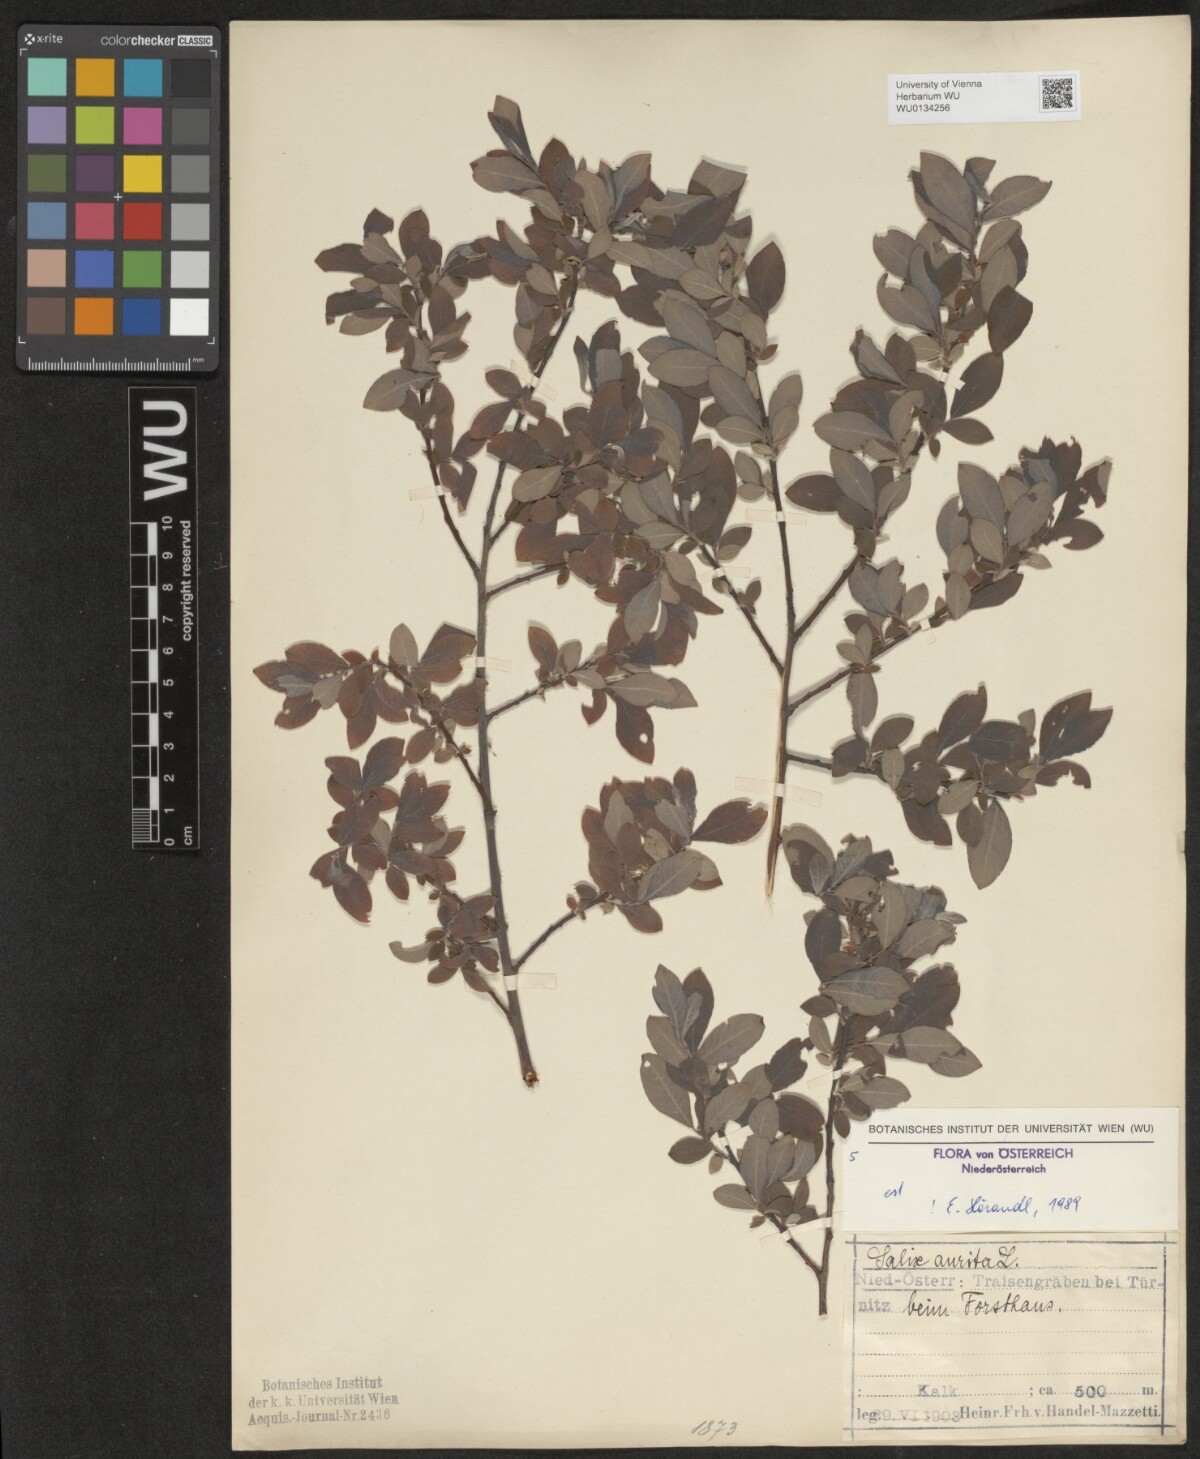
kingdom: Plantae
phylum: Tracheophyta
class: Magnoliopsida
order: Malpighiales
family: Salicaceae
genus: Salix
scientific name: Salix aurita
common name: Eared willow
